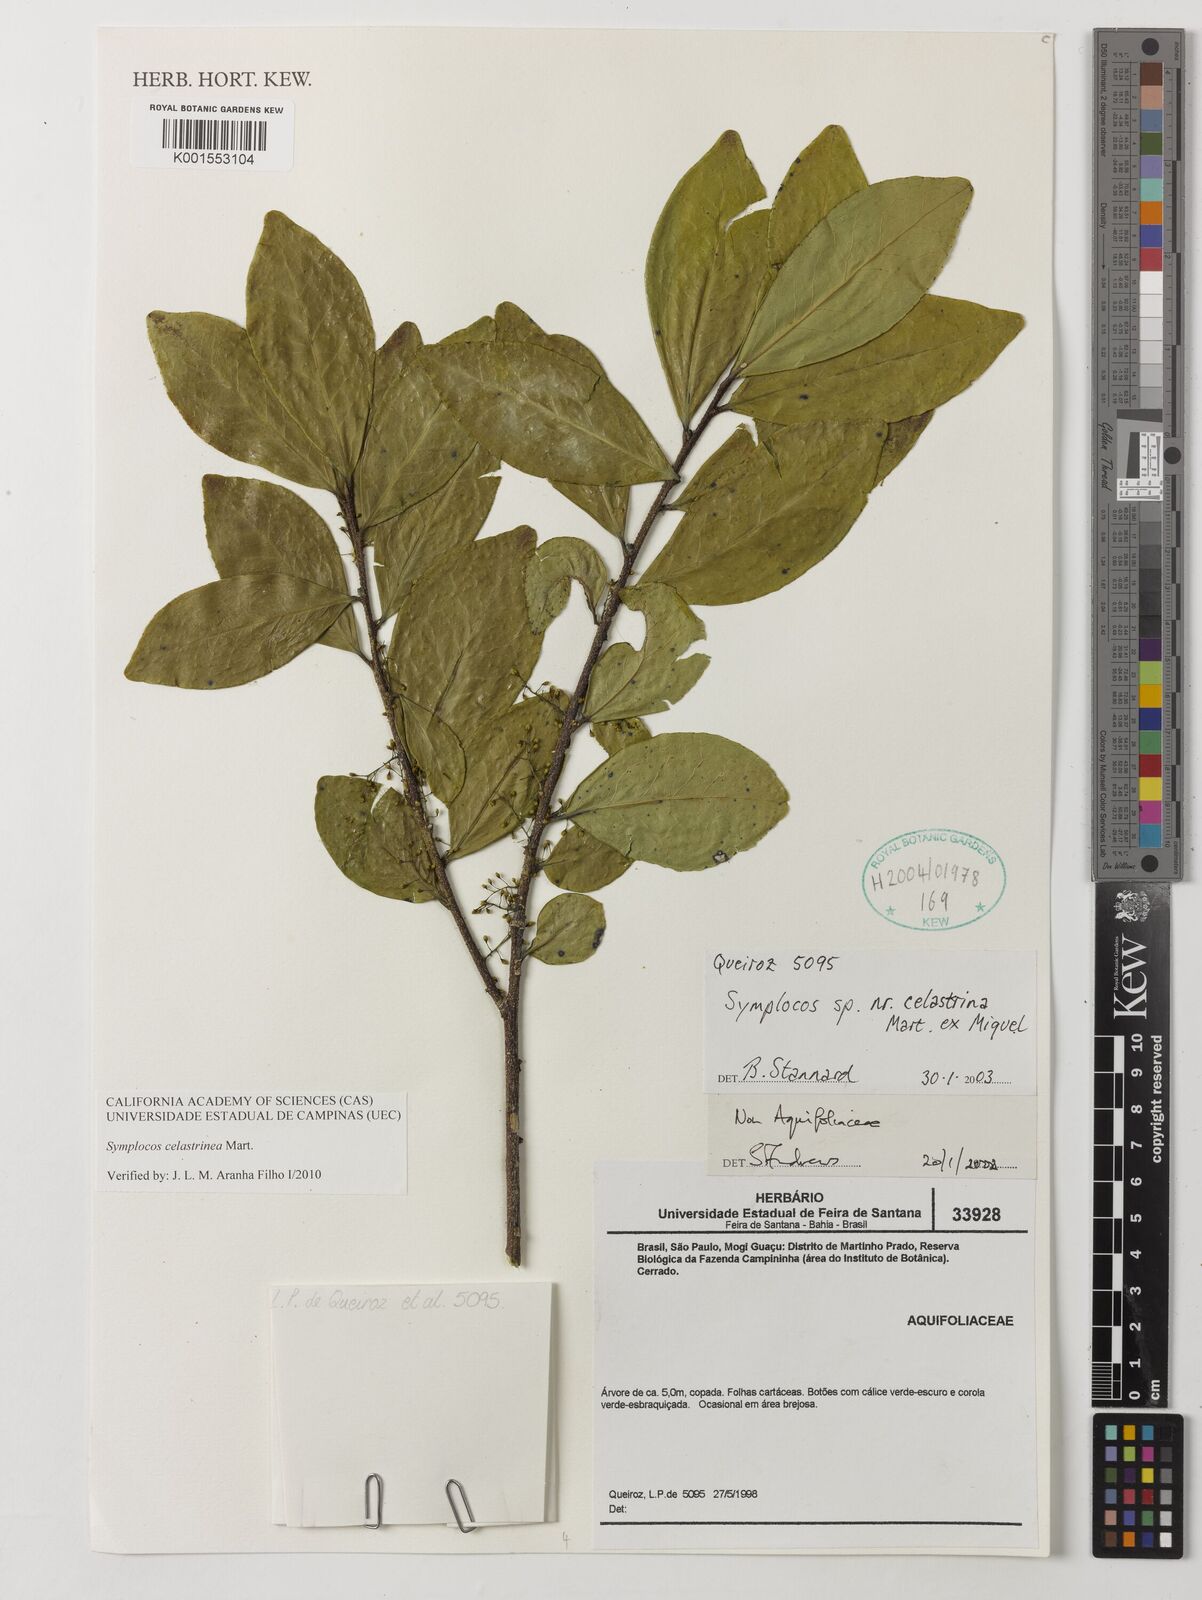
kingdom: Plantae
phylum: Tracheophyta
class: Magnoliopsida
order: Ericales
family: Symplocaceae
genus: Symplocos
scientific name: Symplocos celastrinea
